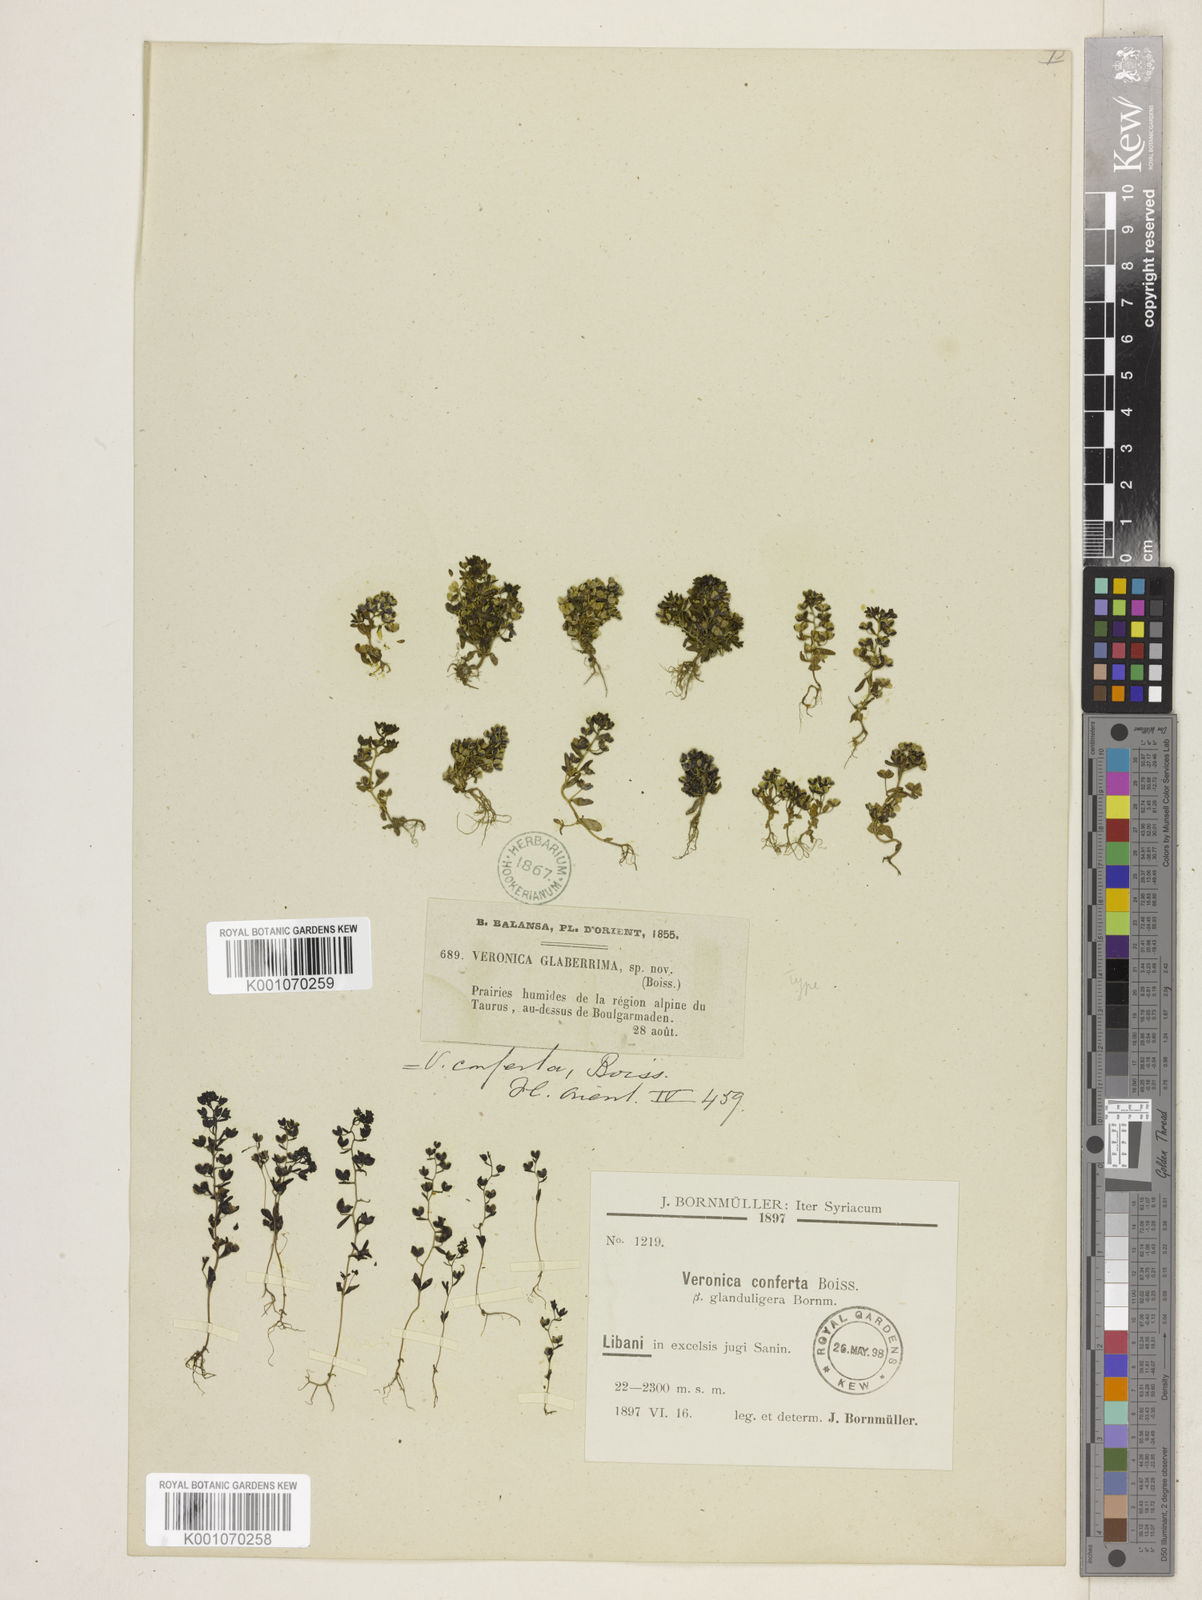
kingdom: Plantae
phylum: Tracheophyta
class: Magnoliopsida
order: Lamiales
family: Plantaginaceae
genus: Veronica
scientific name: Veronica pusilla
